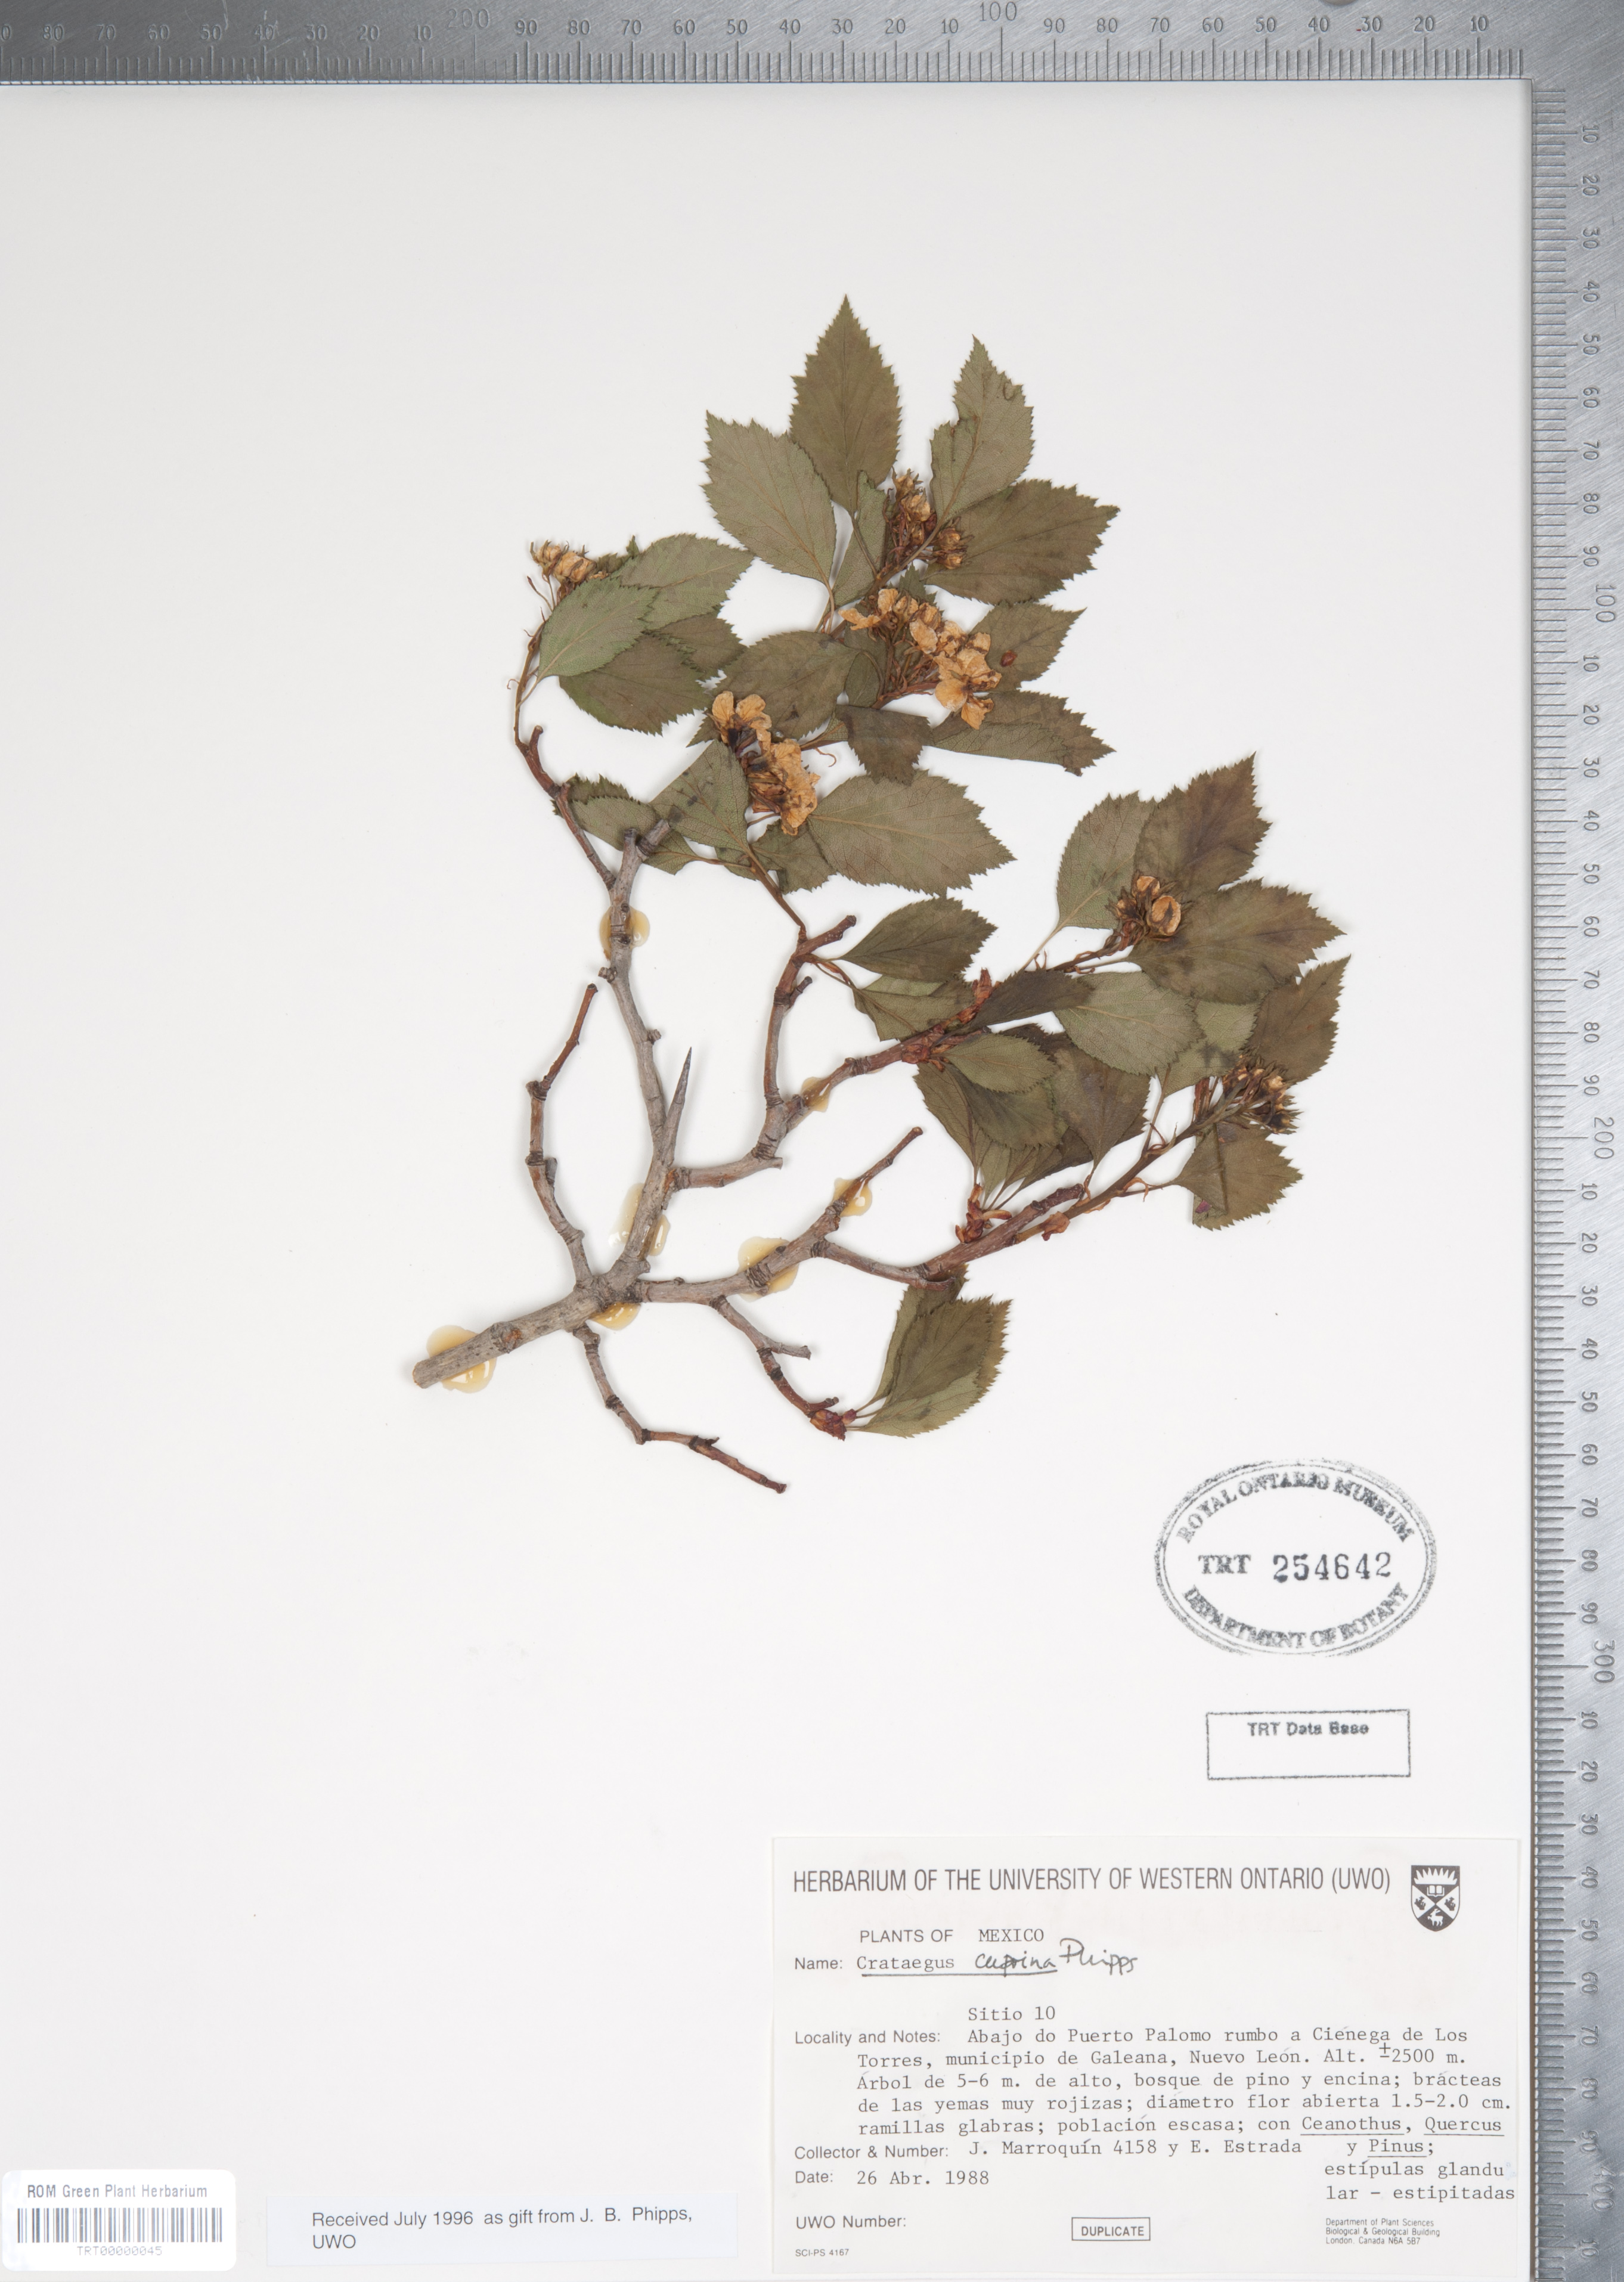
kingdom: Plantae
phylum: Tracheophyta
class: Magnoliopsida
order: Rosales
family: Rosaceae
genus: Crataegus
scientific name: Crataegus cuprina
